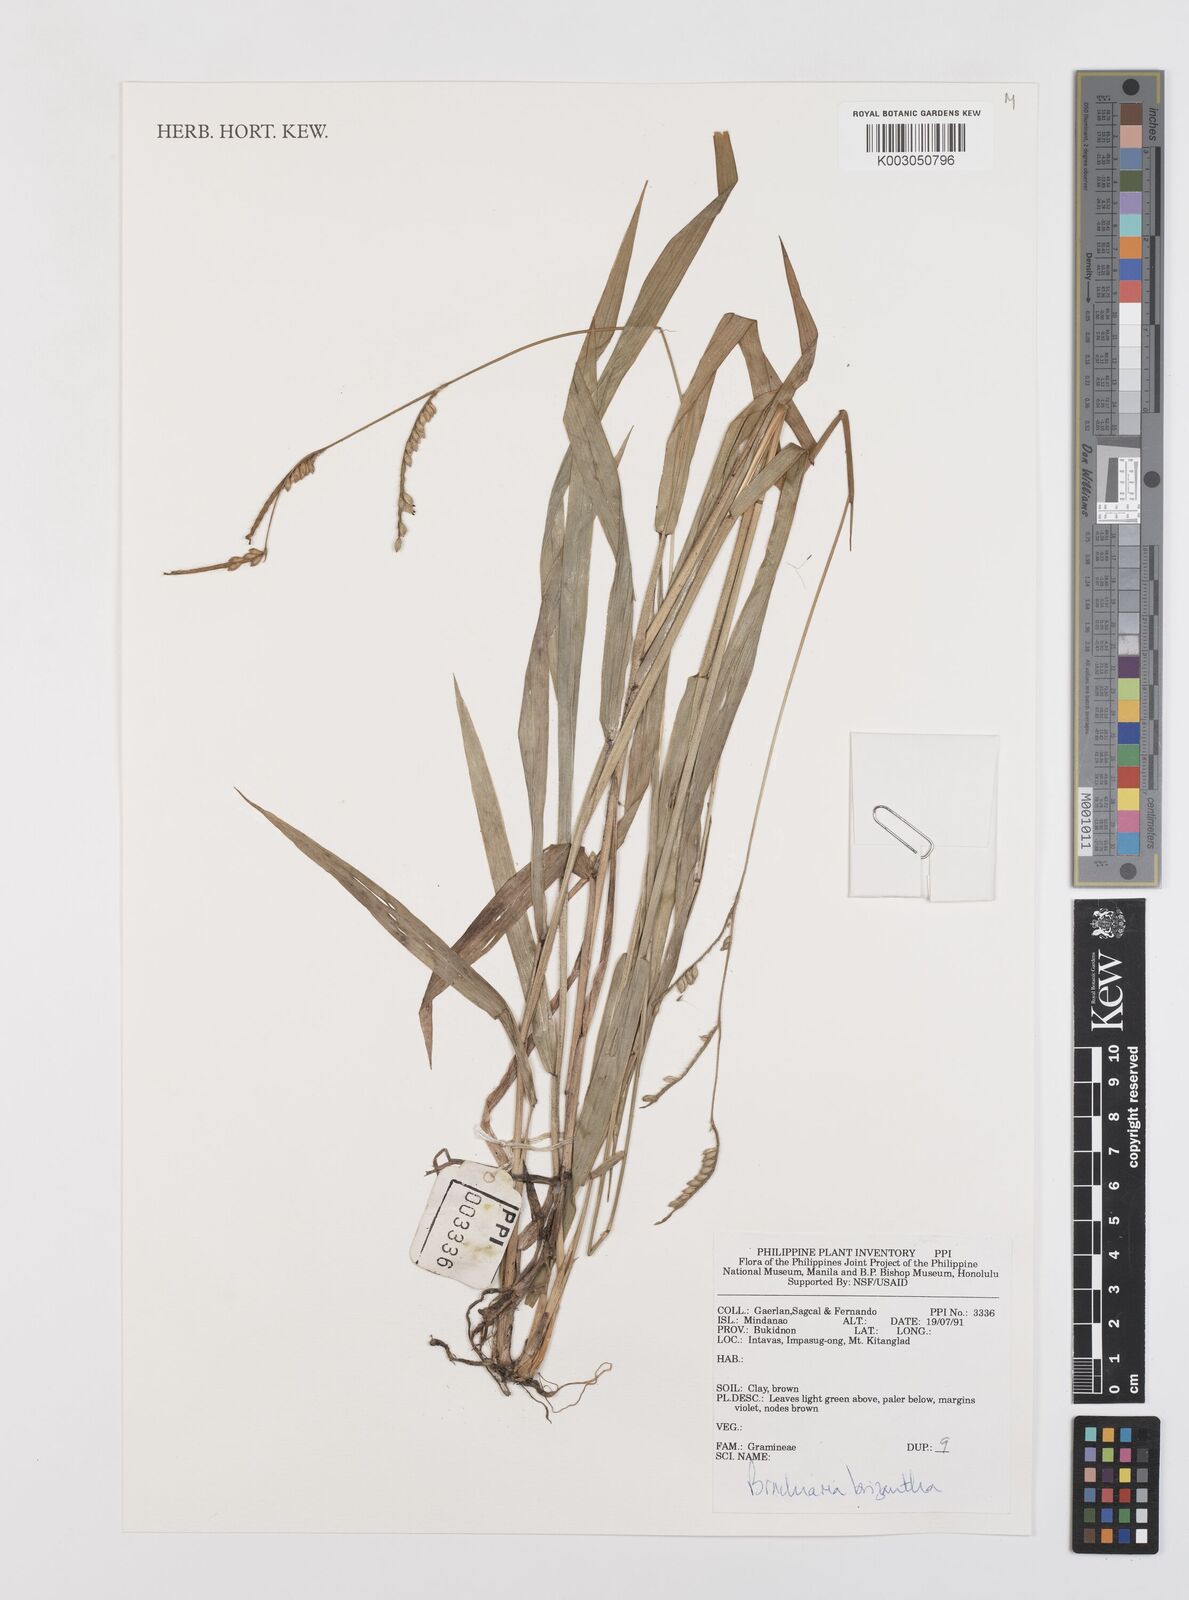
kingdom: Plantae
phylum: Tracheophyta
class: Liliopsida
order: Poales
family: Poaceae
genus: Urochloa
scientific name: Urochloa brizantha
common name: Palisade signalgrass
